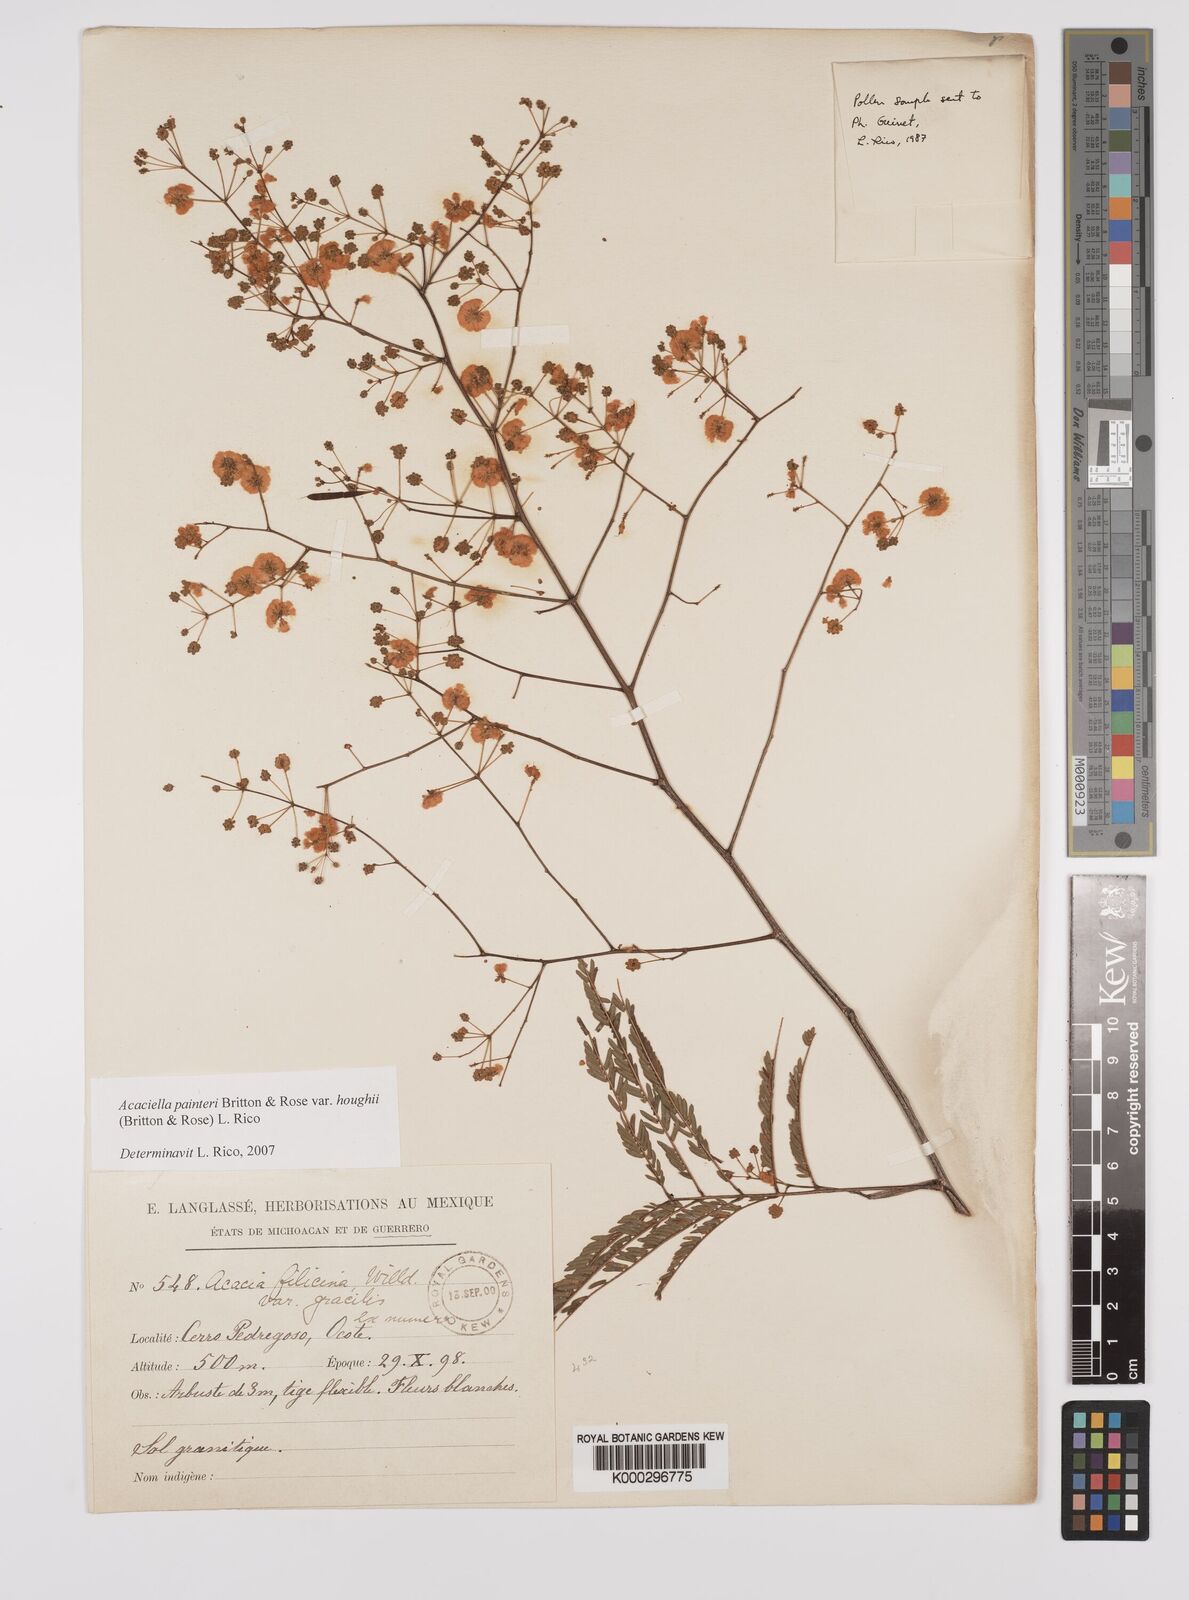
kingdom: Plantae
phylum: Tracheophyta
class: Magnoliopsida
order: Fabales
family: Fabaceae
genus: Acaciella
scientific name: Acaciella painteri
